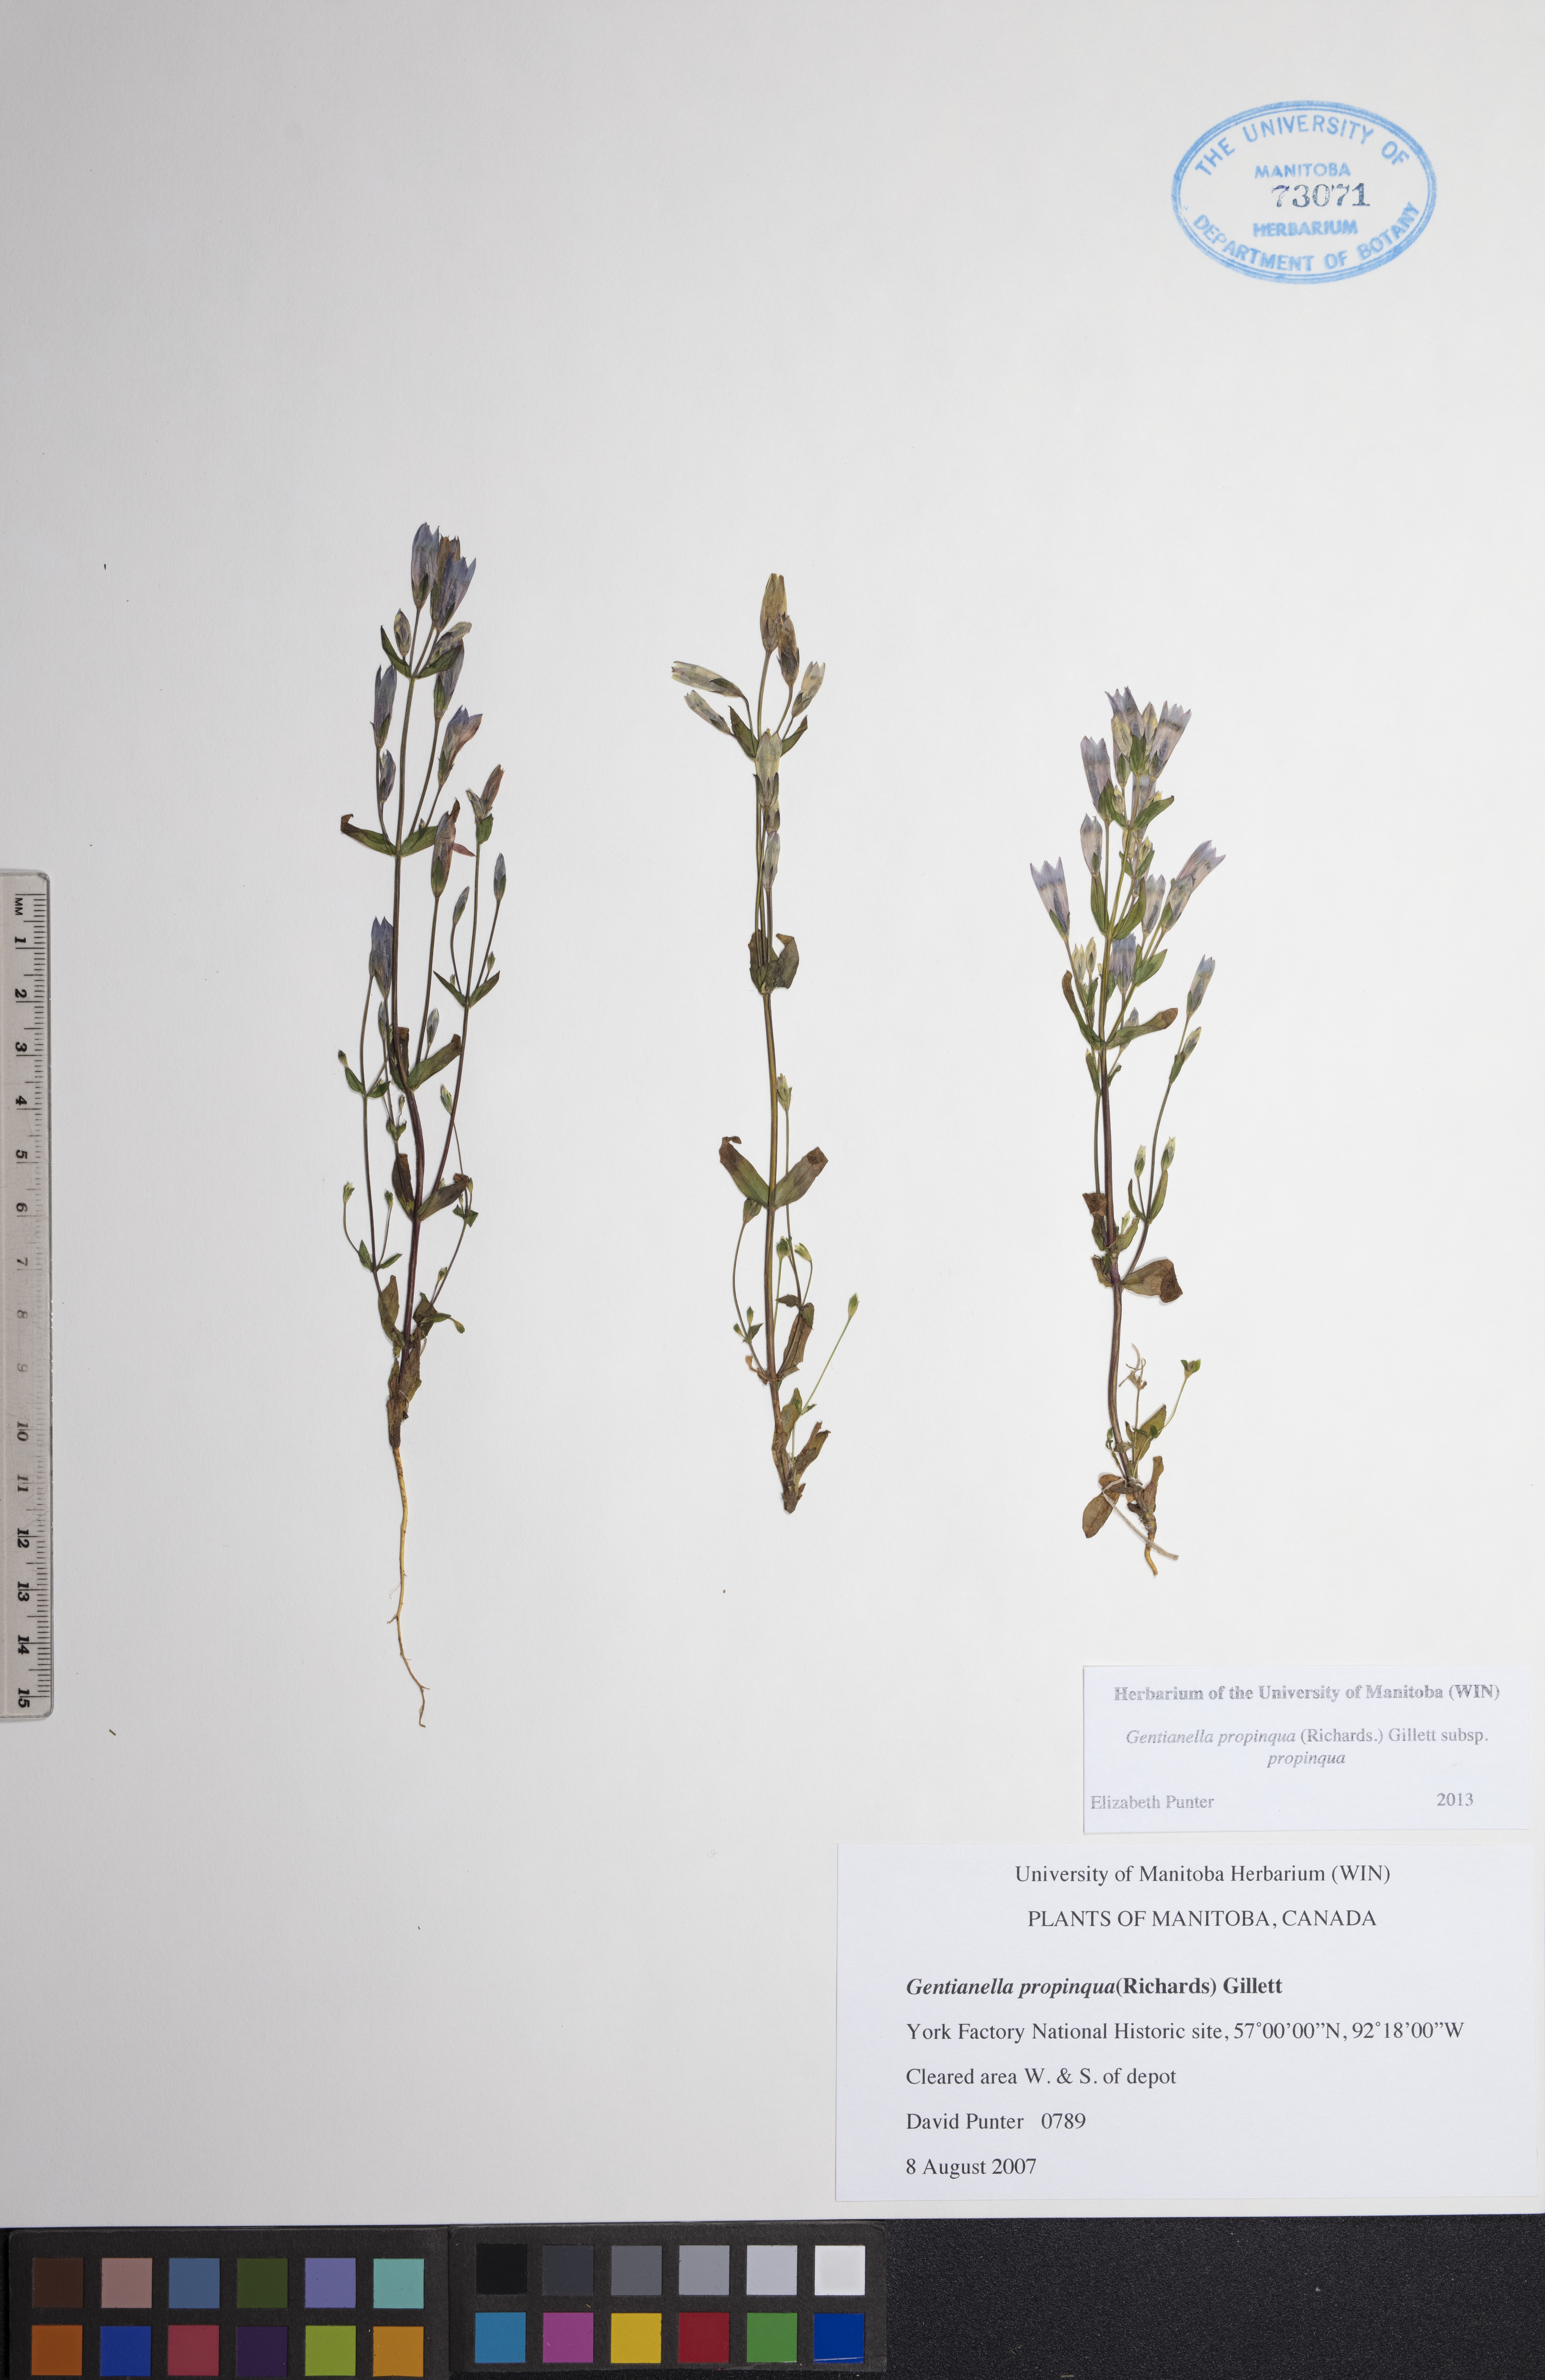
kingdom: Plantae
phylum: Tracheophyta
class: Magnoliopsida
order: Gentianales
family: Gentianaceae
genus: Gentianella
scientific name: Gentianella propinqua
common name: Four-parted dwarf-gentian
